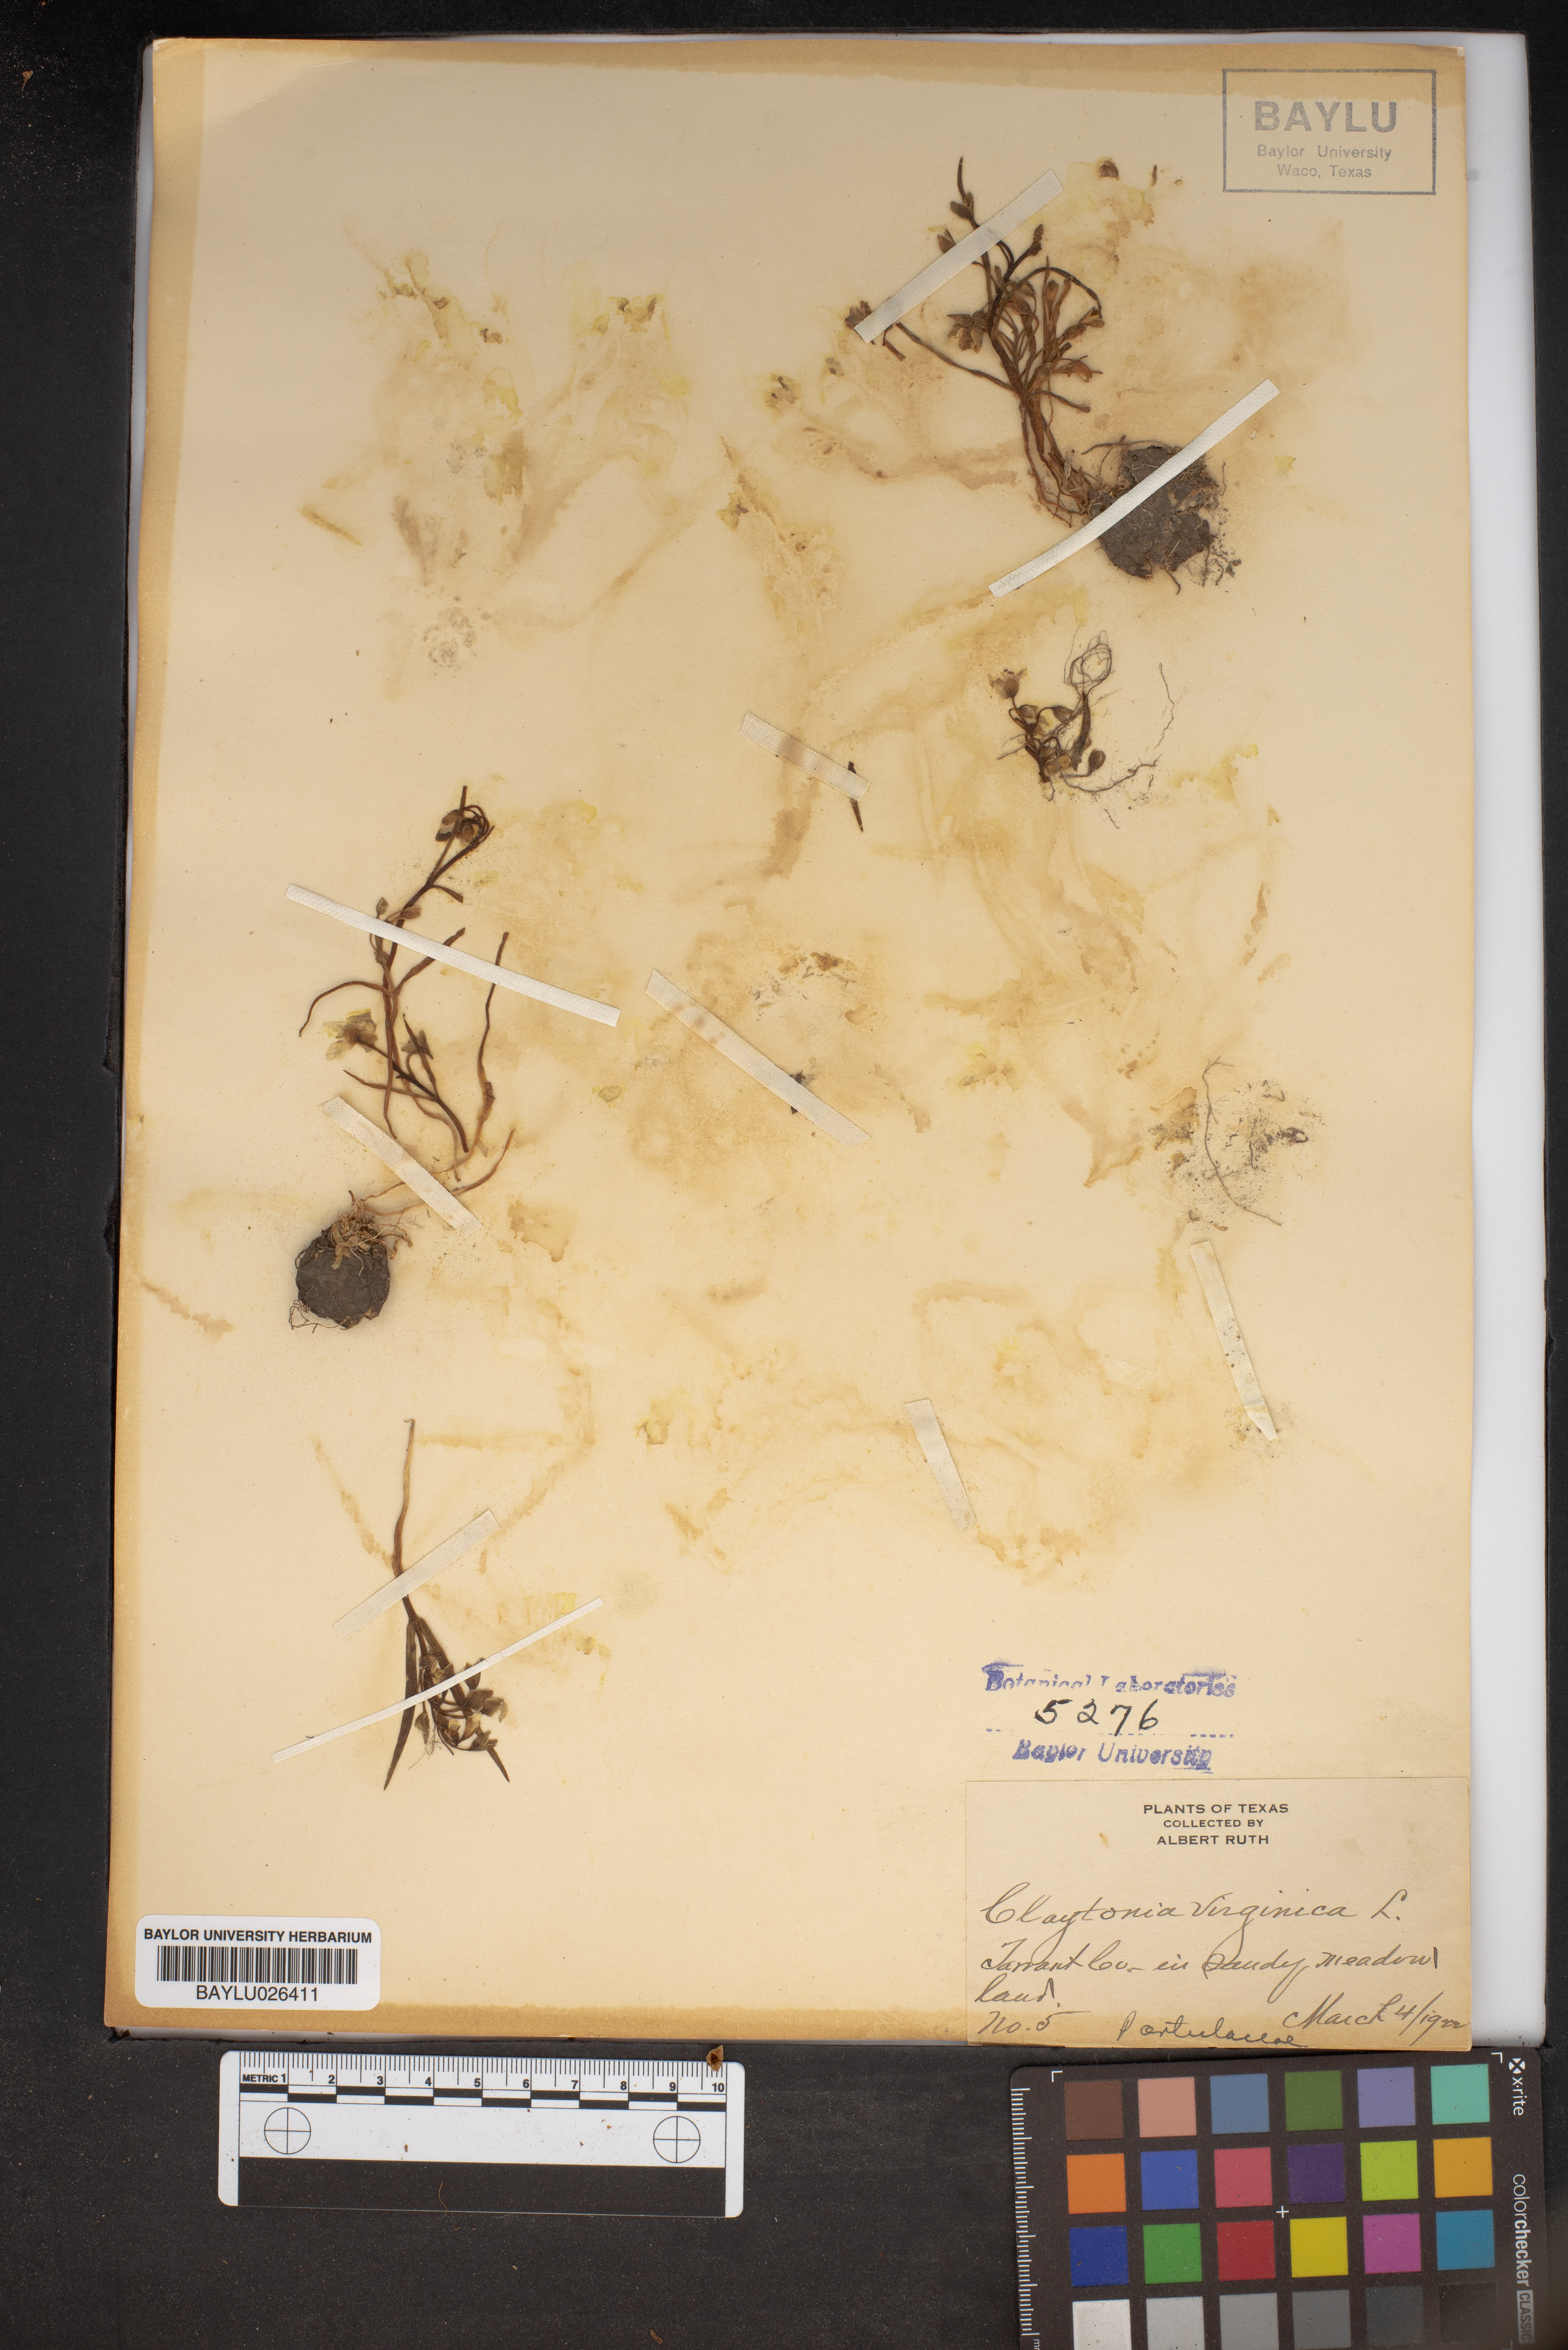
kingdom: Plantae
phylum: Tracheophyta
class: Magnoliopsida
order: Caryophyllales
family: Montiaceae
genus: Claytonia
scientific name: Claytonia virginica
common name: Virginia springbeauty
